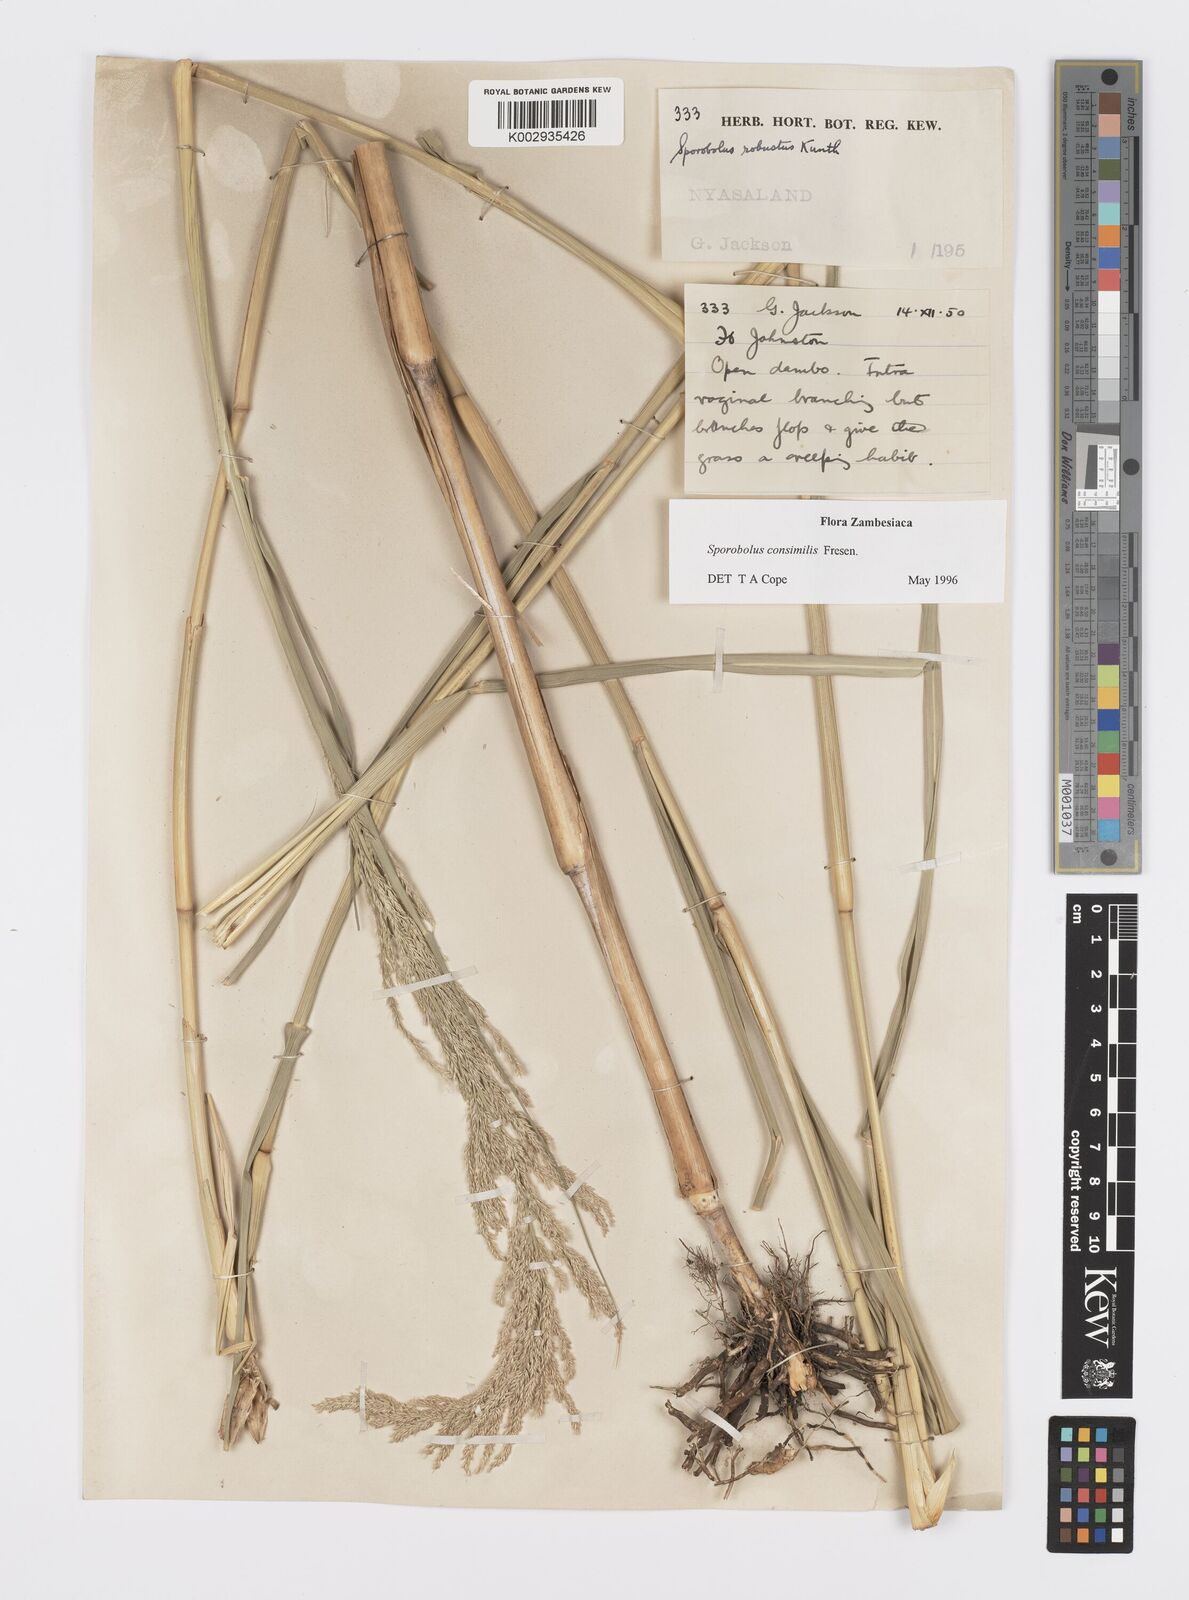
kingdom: Plantae
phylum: Tracheophyta
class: Liliopsida
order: Poales
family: Poaceae
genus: Sporobolus
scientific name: Sporobolus consimilis
